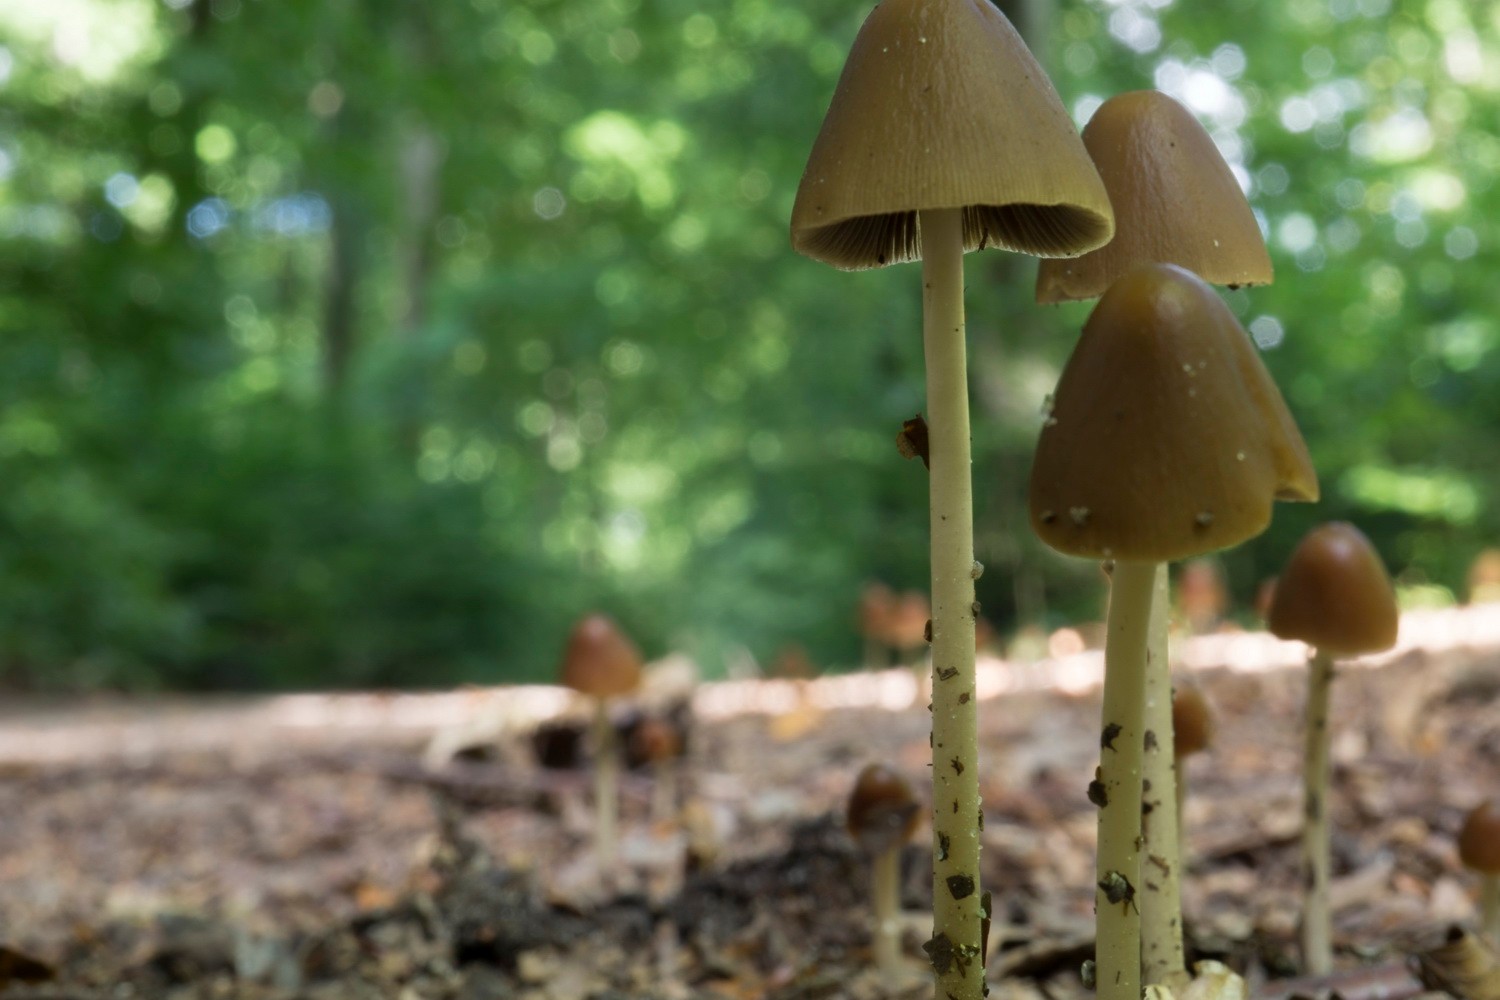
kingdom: Fungi
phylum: Basidiomycota
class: Agaricomycetes
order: Agaricales
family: Psathyrellaceae
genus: Parasola
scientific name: Parasola conopilea
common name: kegle-hjulhat
